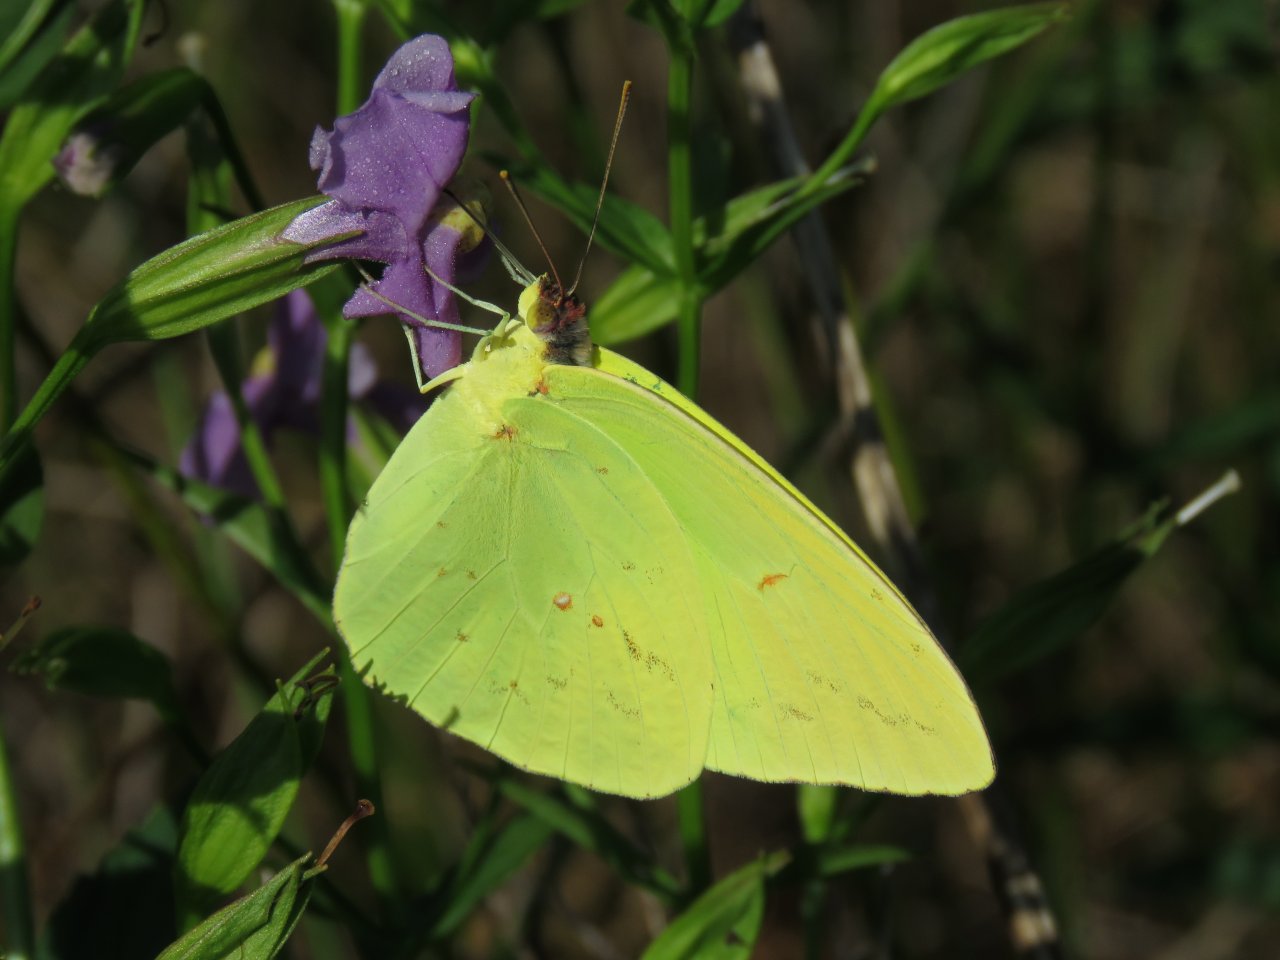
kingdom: Animalia
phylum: Arthropoda
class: Insecta
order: Lepidoptera
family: Pieridae
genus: Phoebis
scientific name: Phoebis sennae
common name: Cloudless Sulphur
